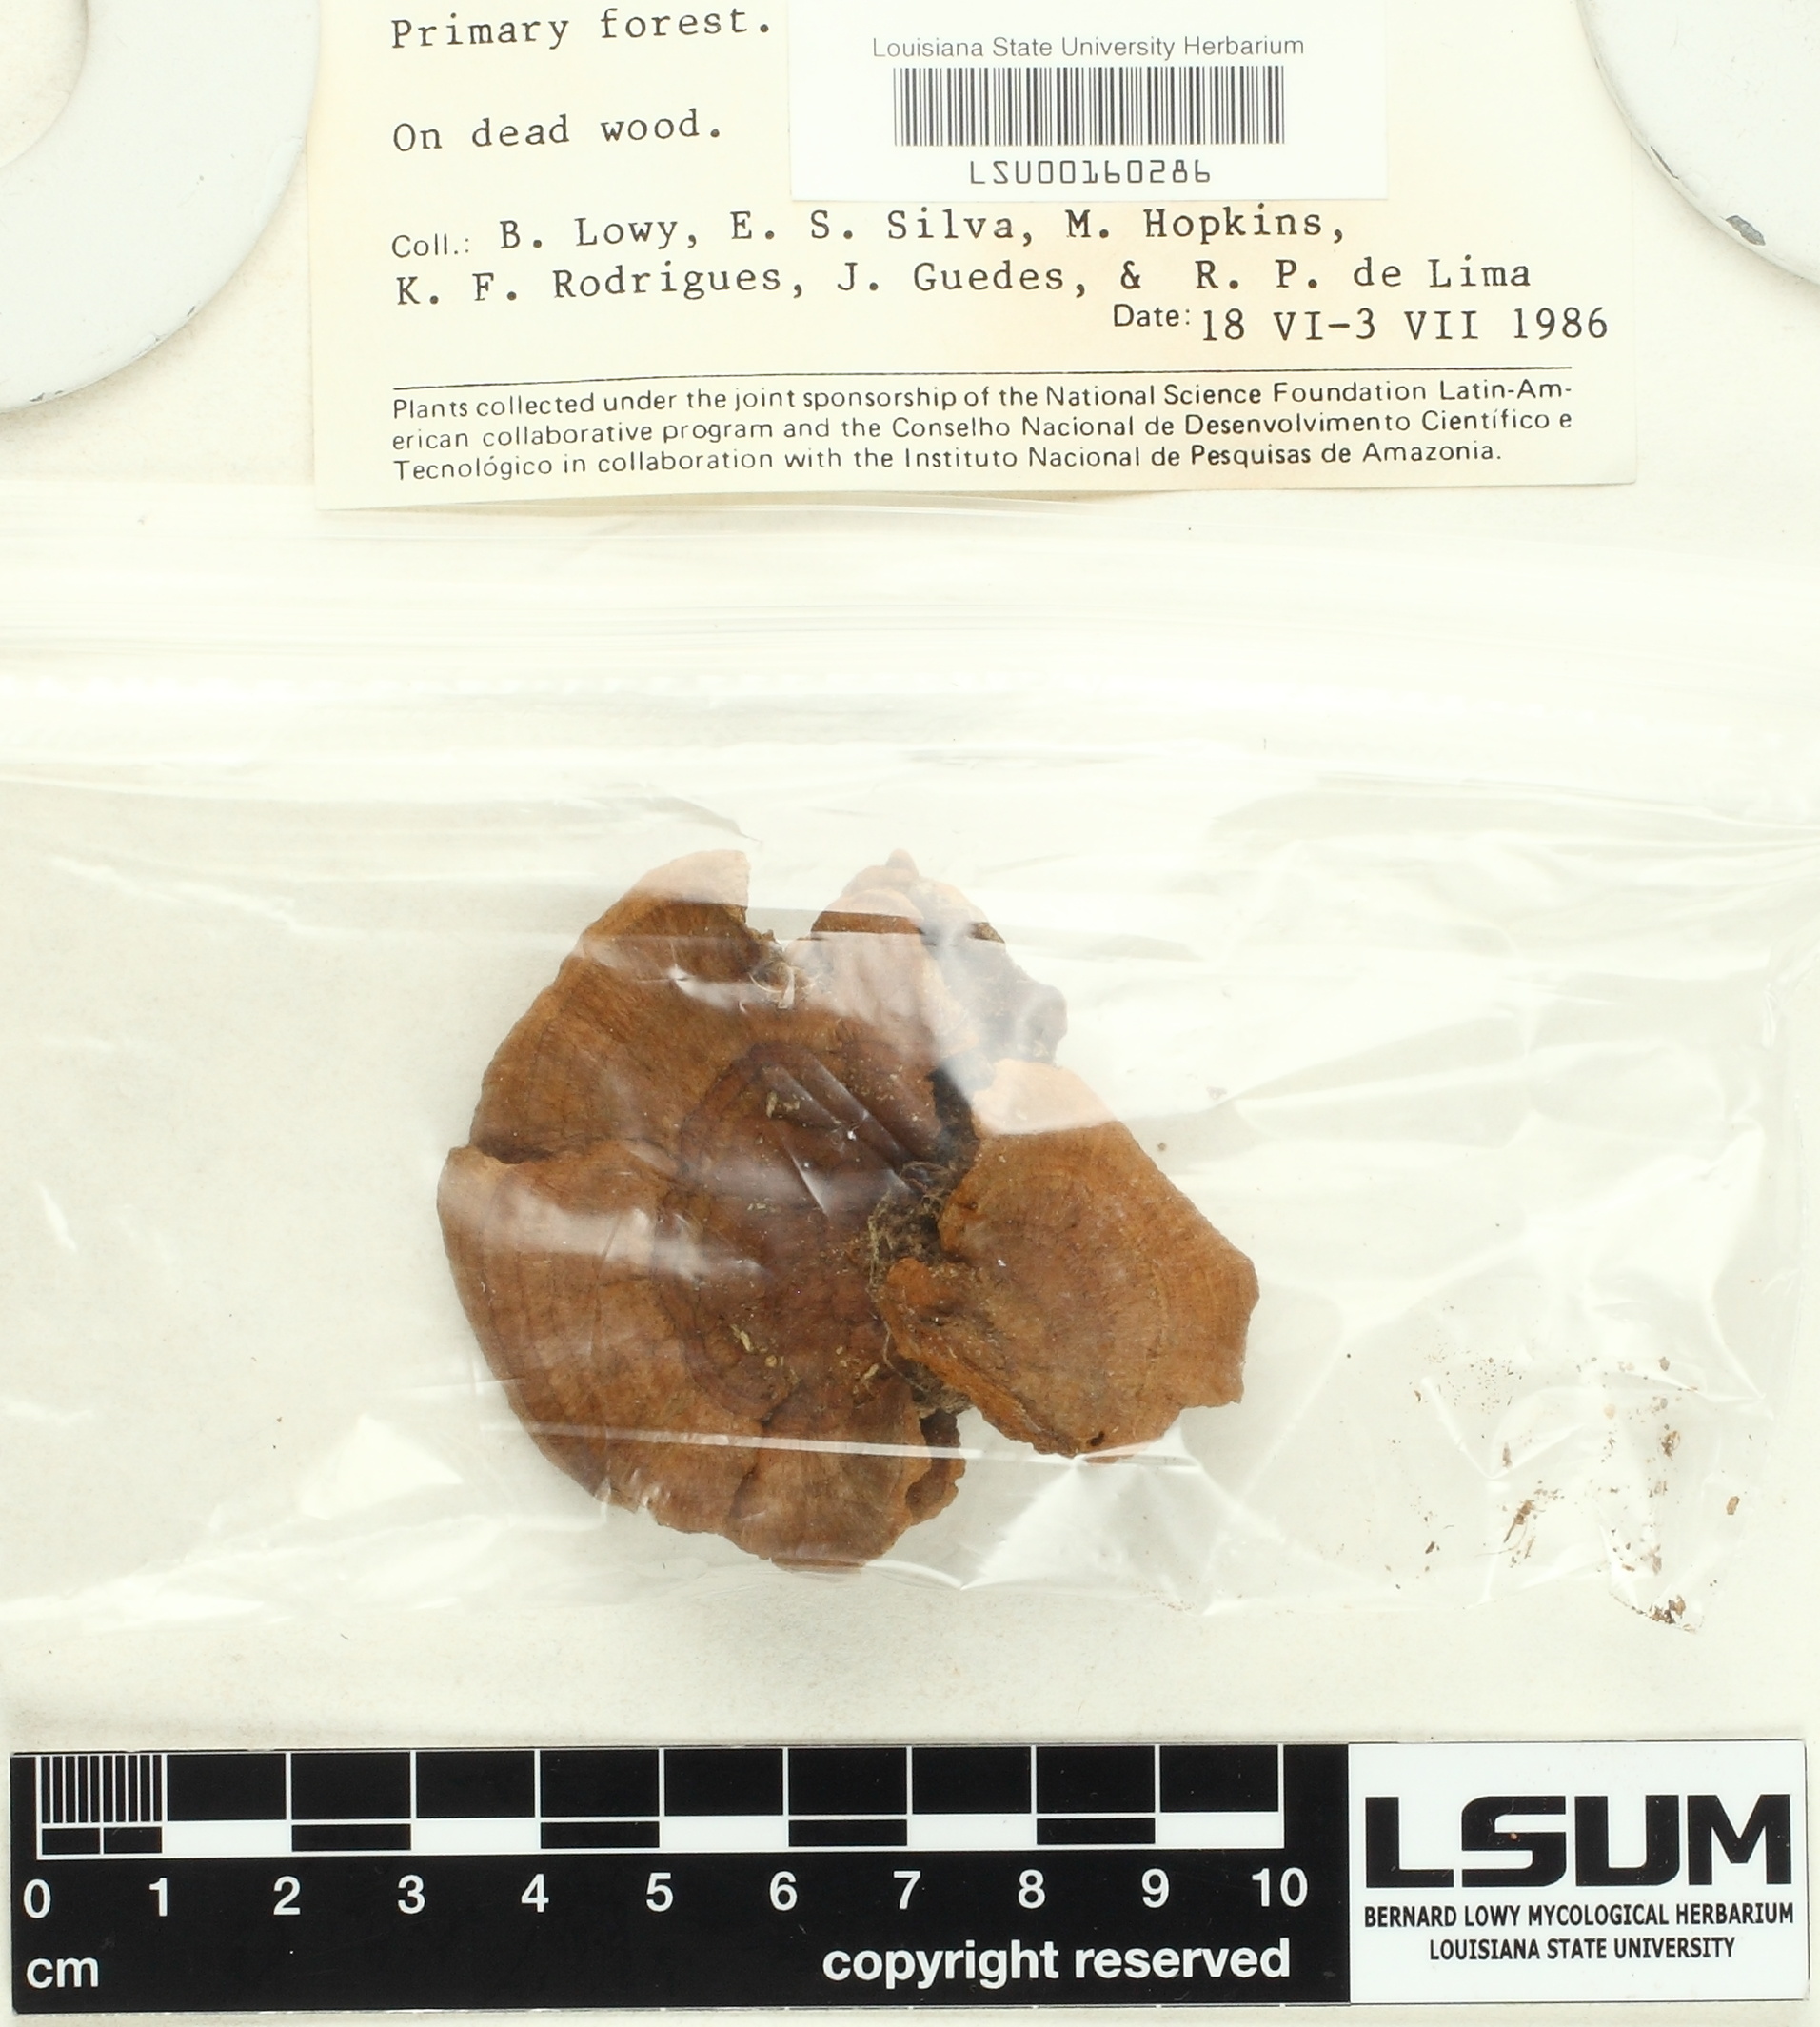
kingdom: Fungi
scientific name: Fungi
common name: Fungi
